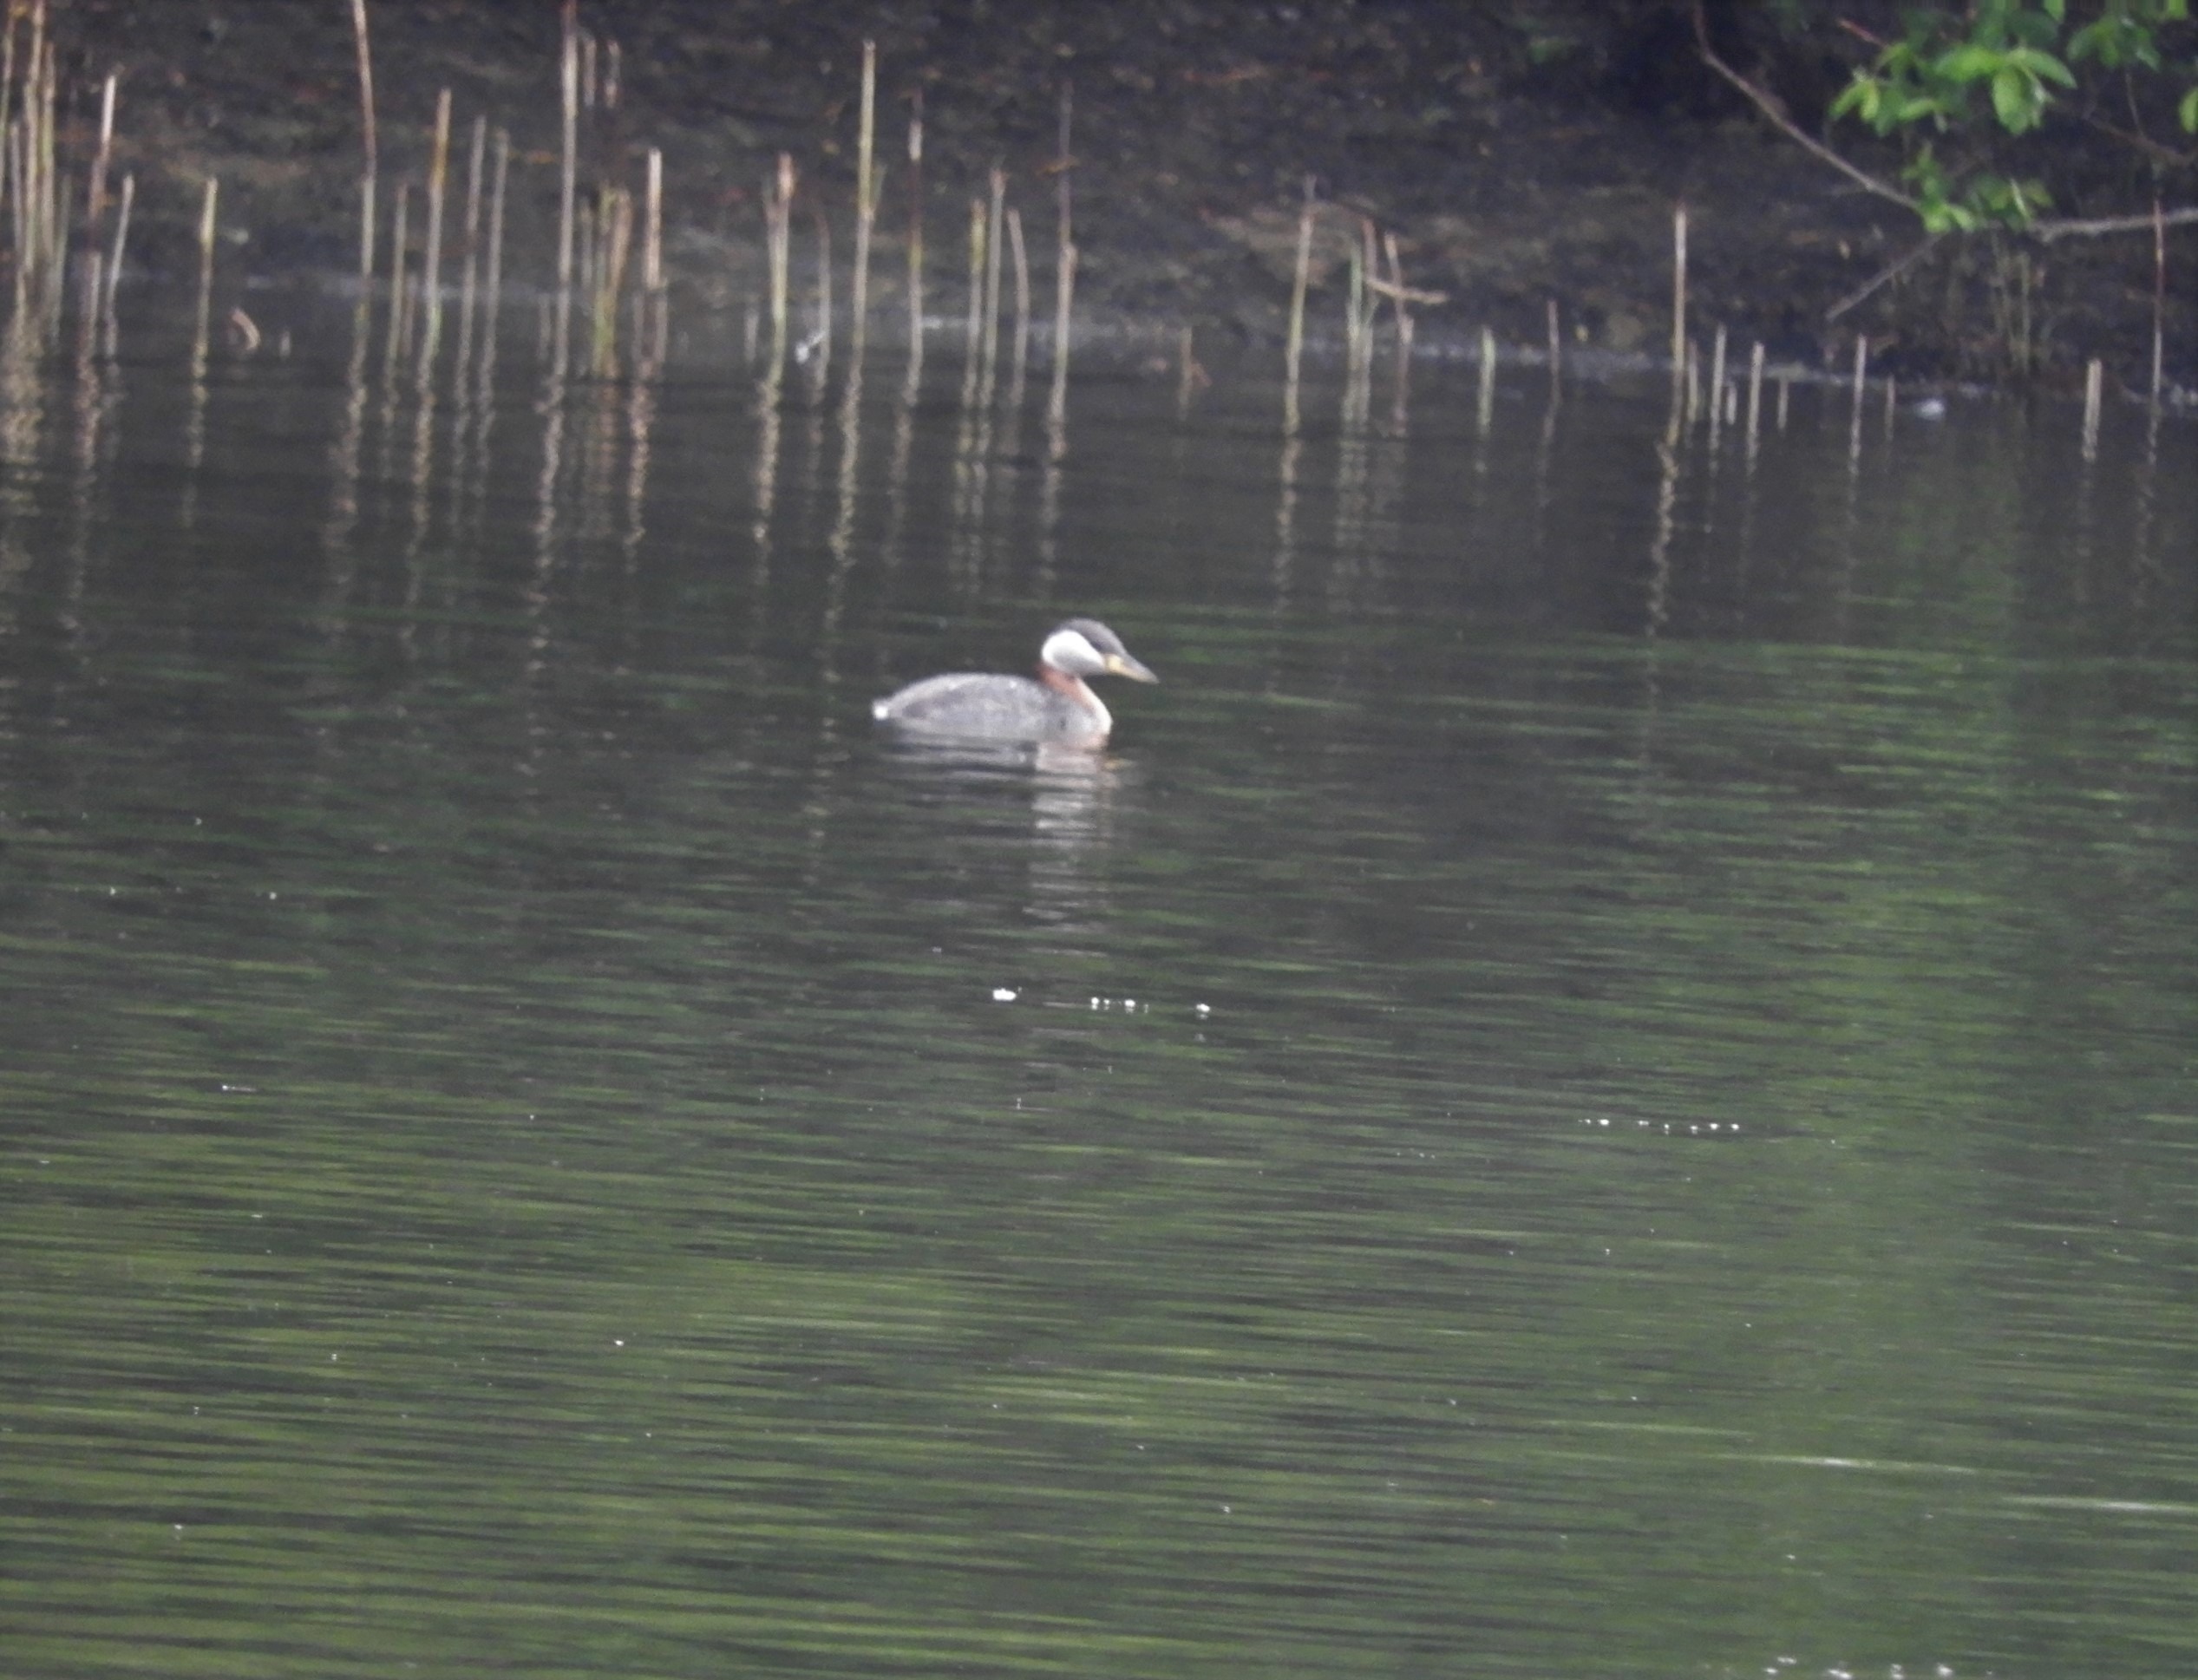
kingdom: Animalia
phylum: Chordata
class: Aves
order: Podicipediformes
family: Podicipedidae
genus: Podiceps
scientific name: Podiceps grisegena
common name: Gråstrubet lappedykker
